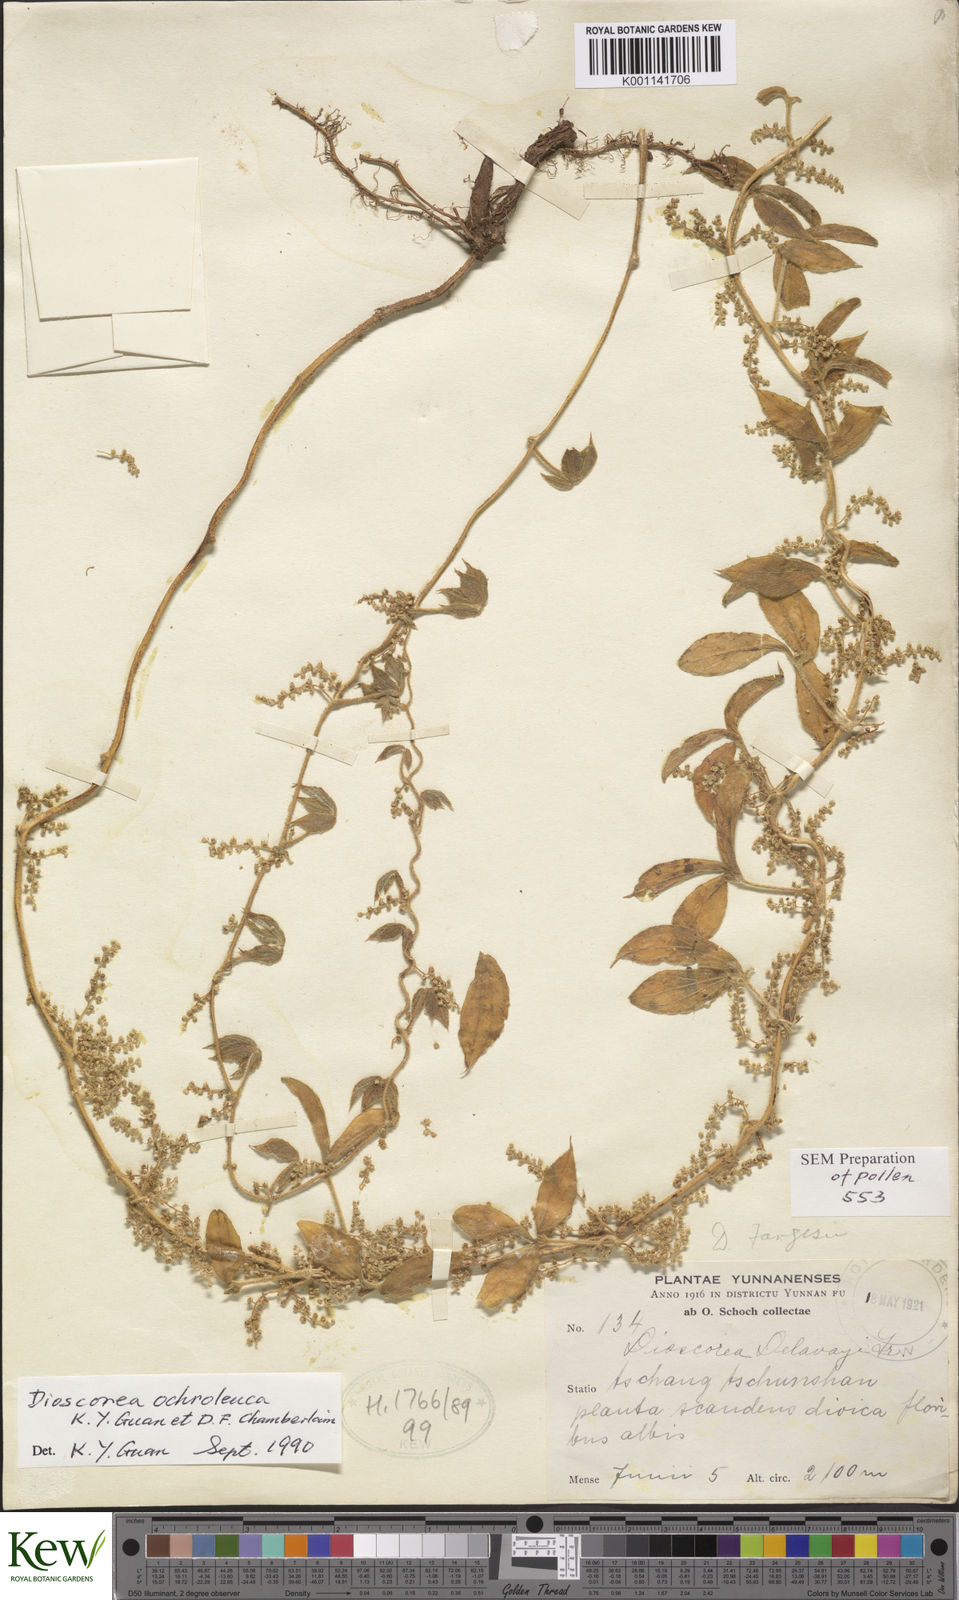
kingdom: Plantae
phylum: Tracheophyta
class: Liliopsida
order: Dioscoreales
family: Dioscoreaceae
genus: Dioscorea
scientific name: Dioscorea kamoonensis
